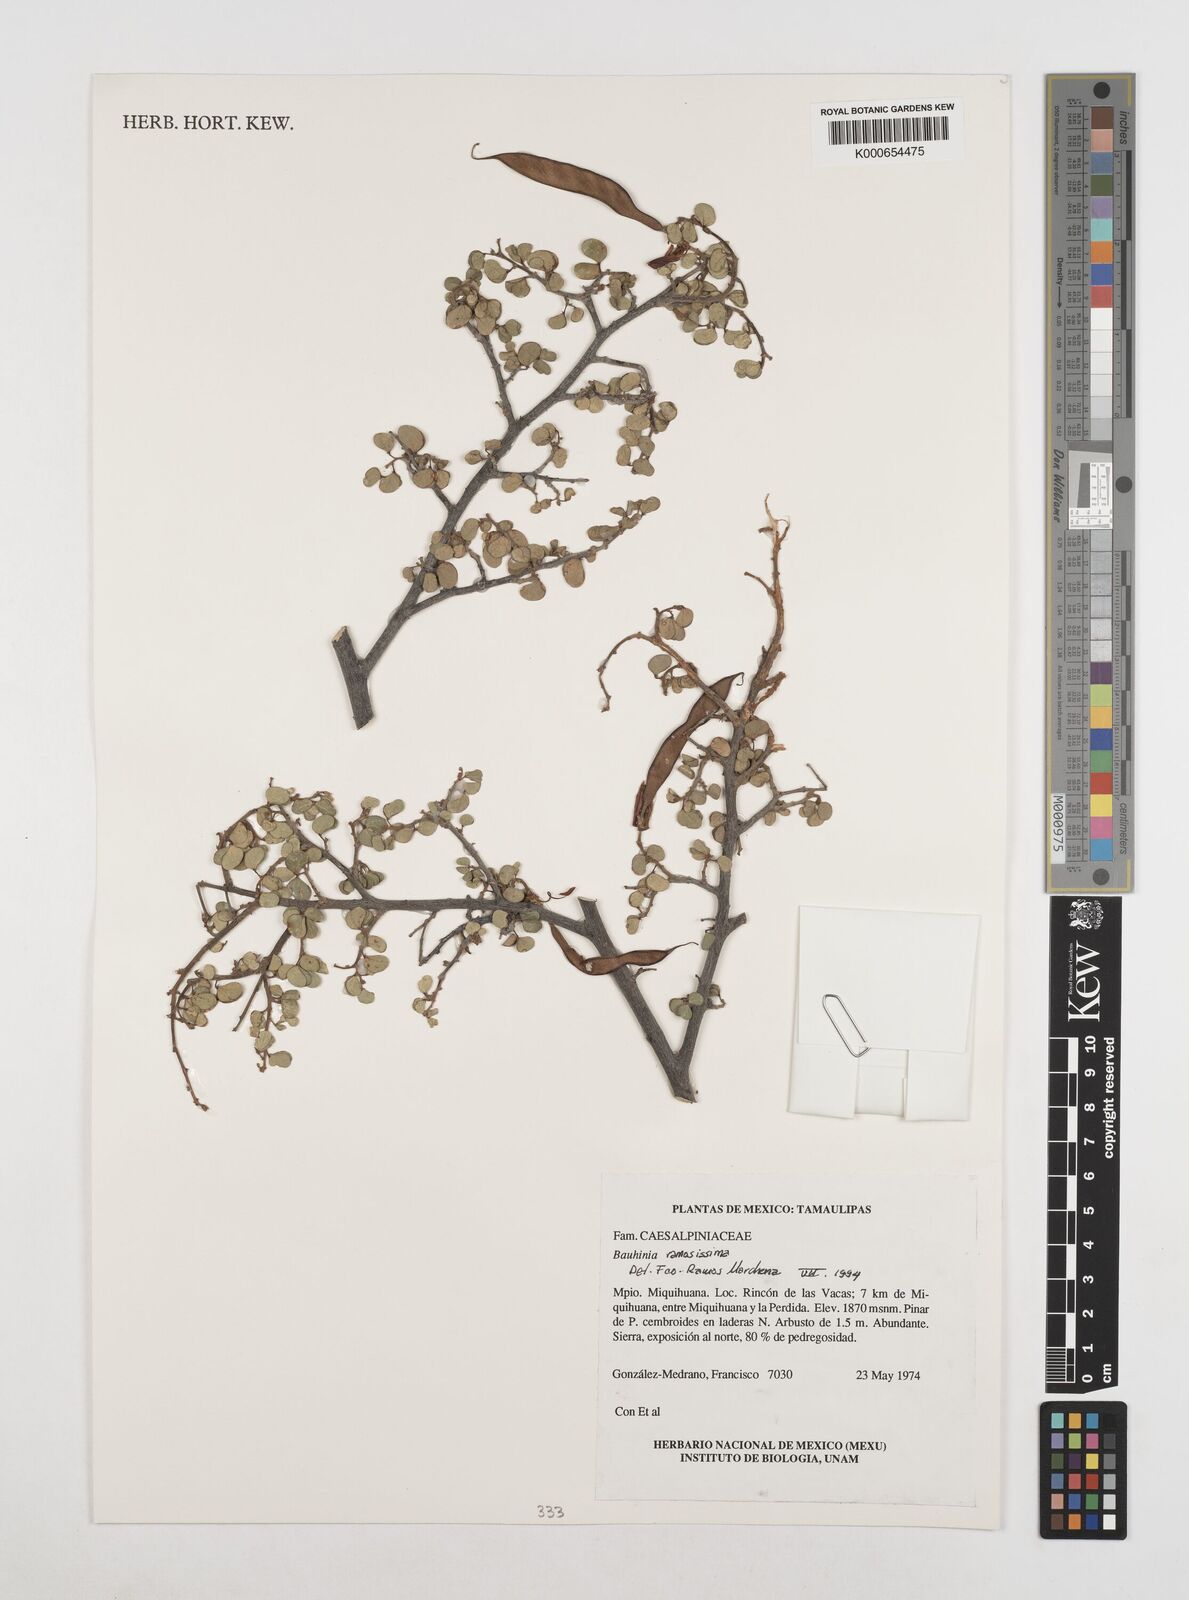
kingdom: Plantae
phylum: Tracheophyta
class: Magnoliopsida
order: Fabales
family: Fabaceae
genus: Bauhinia
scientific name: Bauhinia
